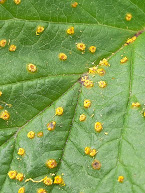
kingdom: Fungi
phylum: Basidiomycota
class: Pucciniomycetes
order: Pucciniales
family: Phragmidiaceae
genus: Phragmidium
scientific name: Phragmidium rubi-idaei
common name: hindbær-flercellerust
